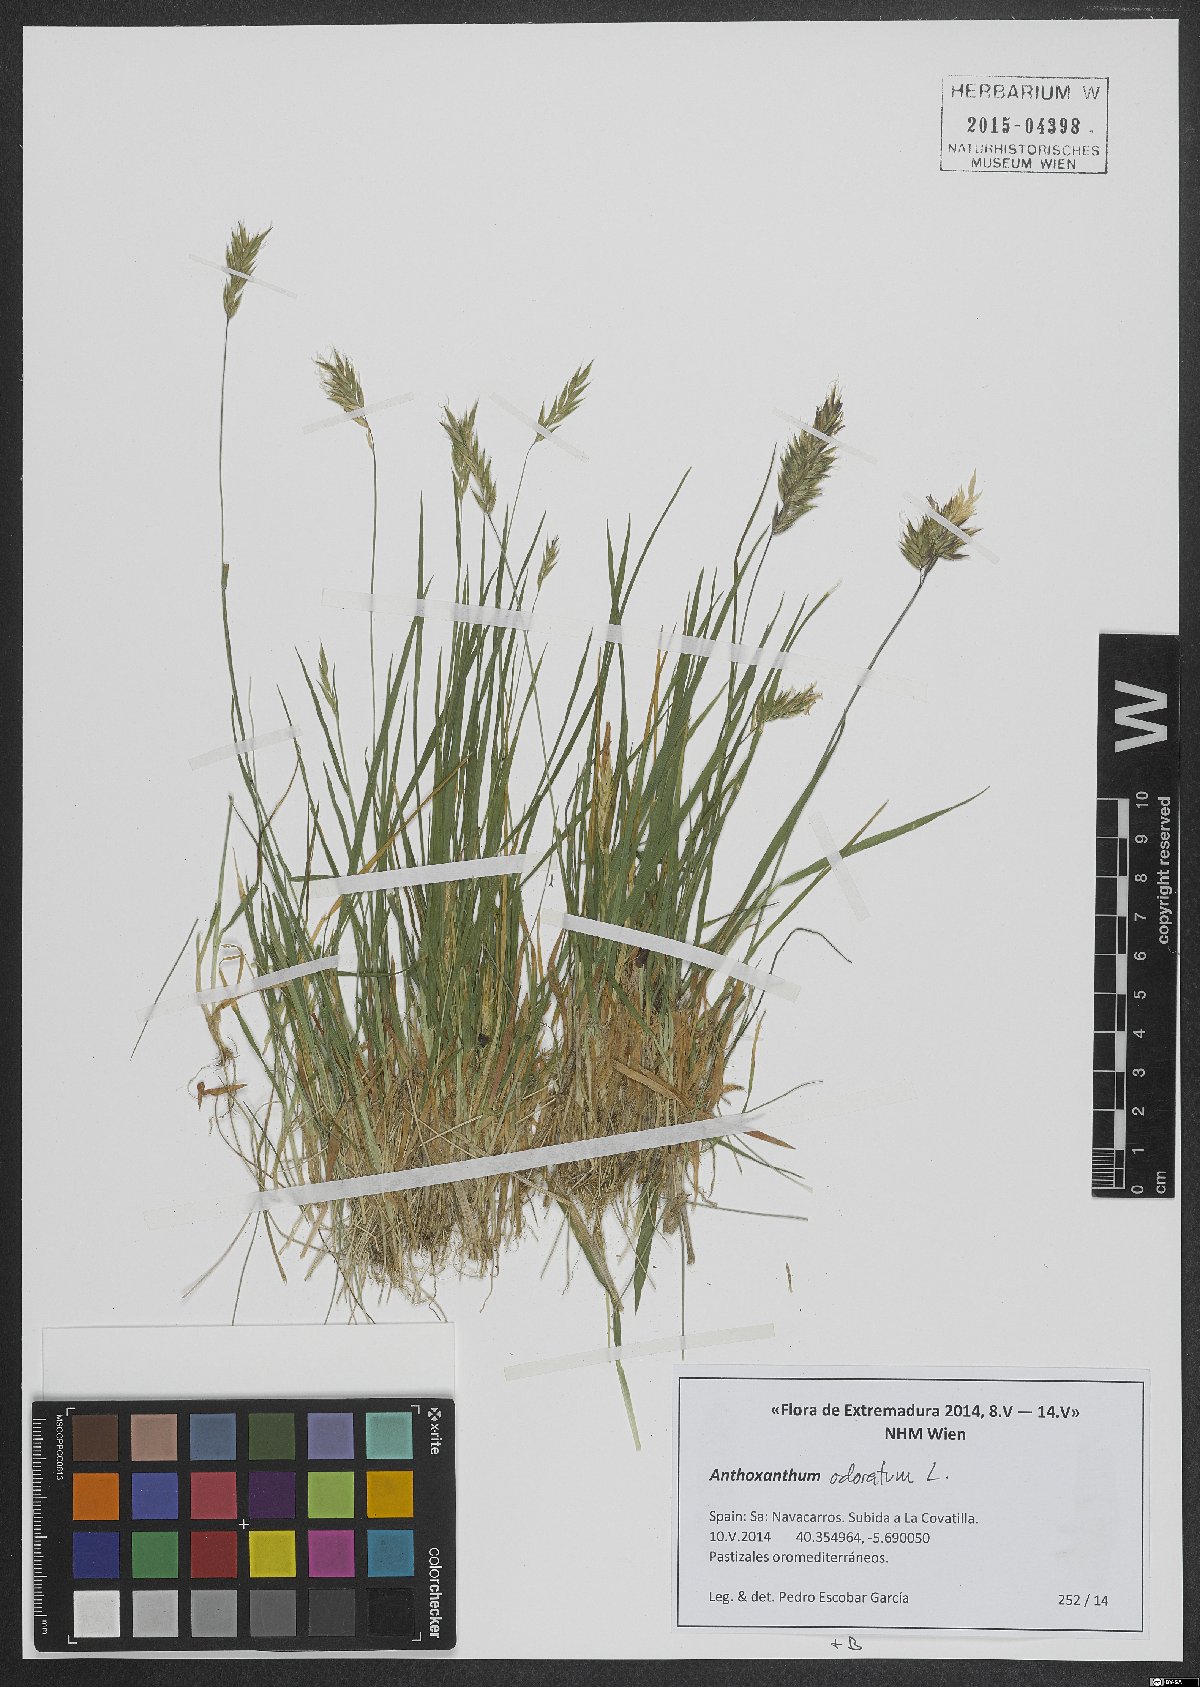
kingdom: Plantae
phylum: Tracheophyta
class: Liliopsida
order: Poales
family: Poaceae
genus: Anthoxanthum
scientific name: Anthoxanthum odoratum
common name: Sweet vernalgrass
